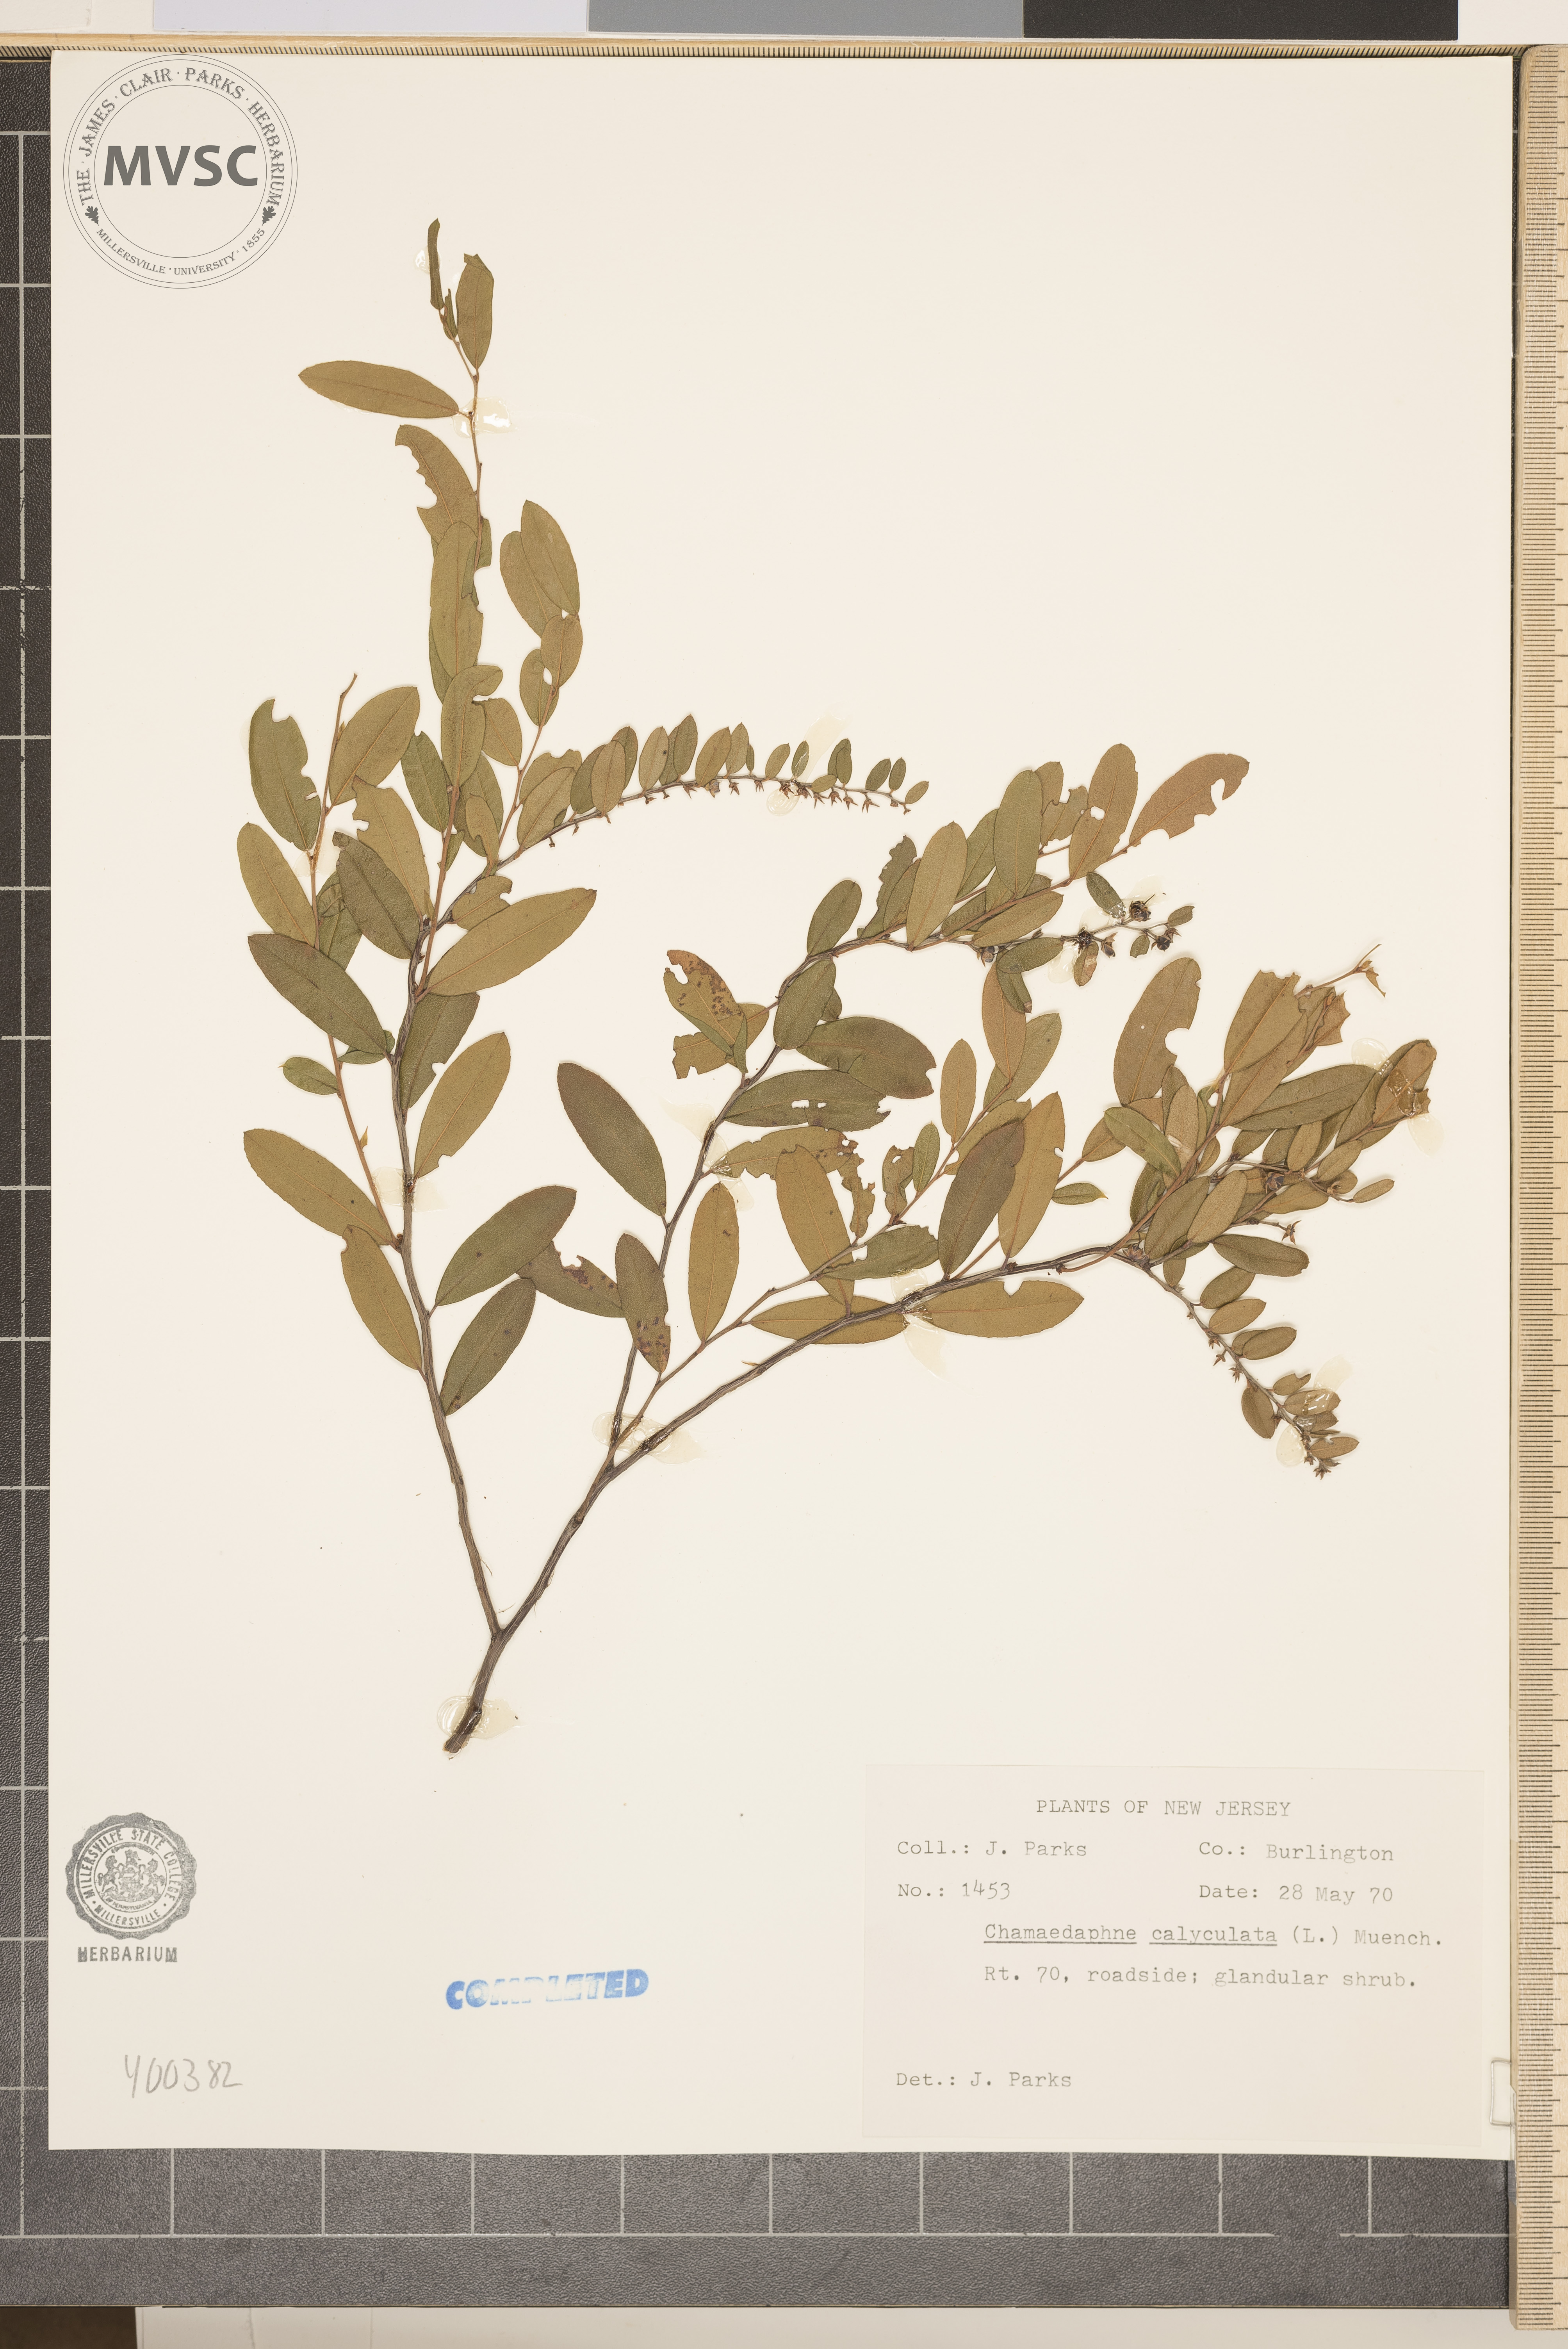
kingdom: Plantae
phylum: Tracheophyta
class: Magnoliopsida
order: Ericales
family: Ericaceae
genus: Chamaedaphne
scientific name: Chamaedaphne calyculata
